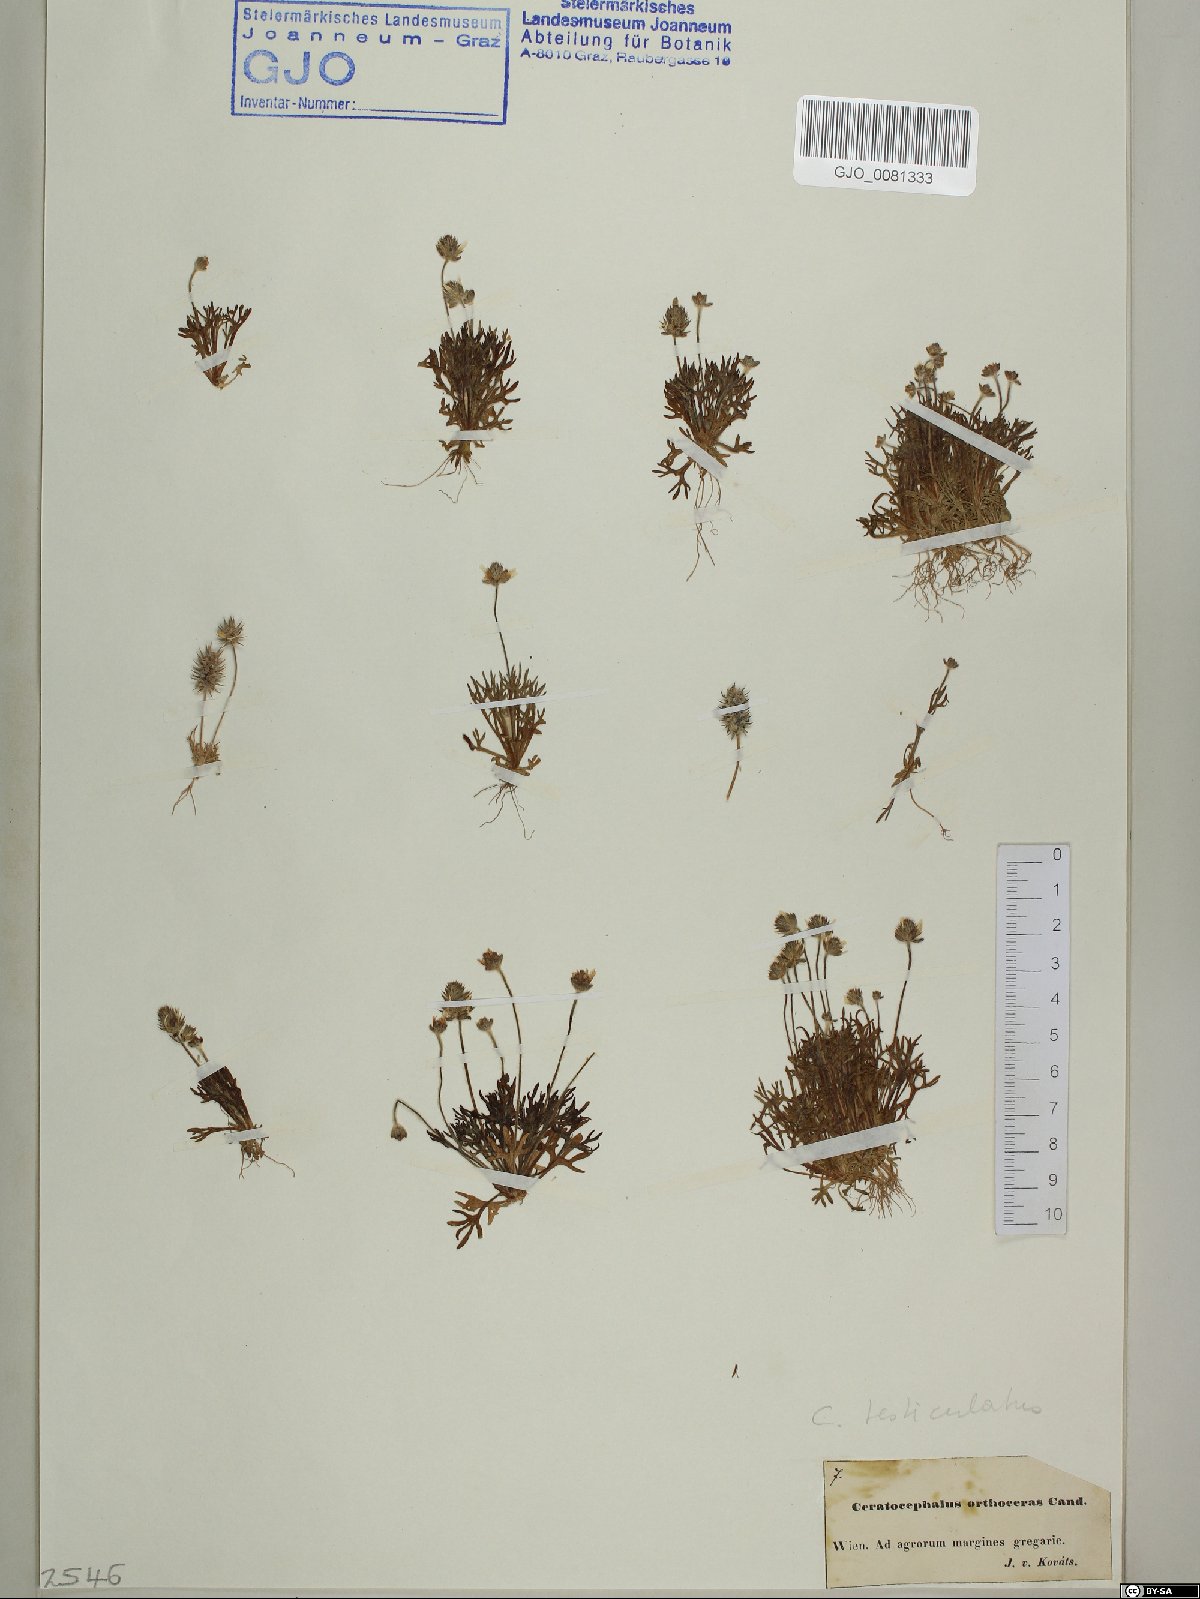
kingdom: Plantae
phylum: Tracheophyta
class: Magnoliopsida
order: Ranunculales
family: Ranunculaceae
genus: Ceratocephala
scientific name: Ceratocephala orthoceras
